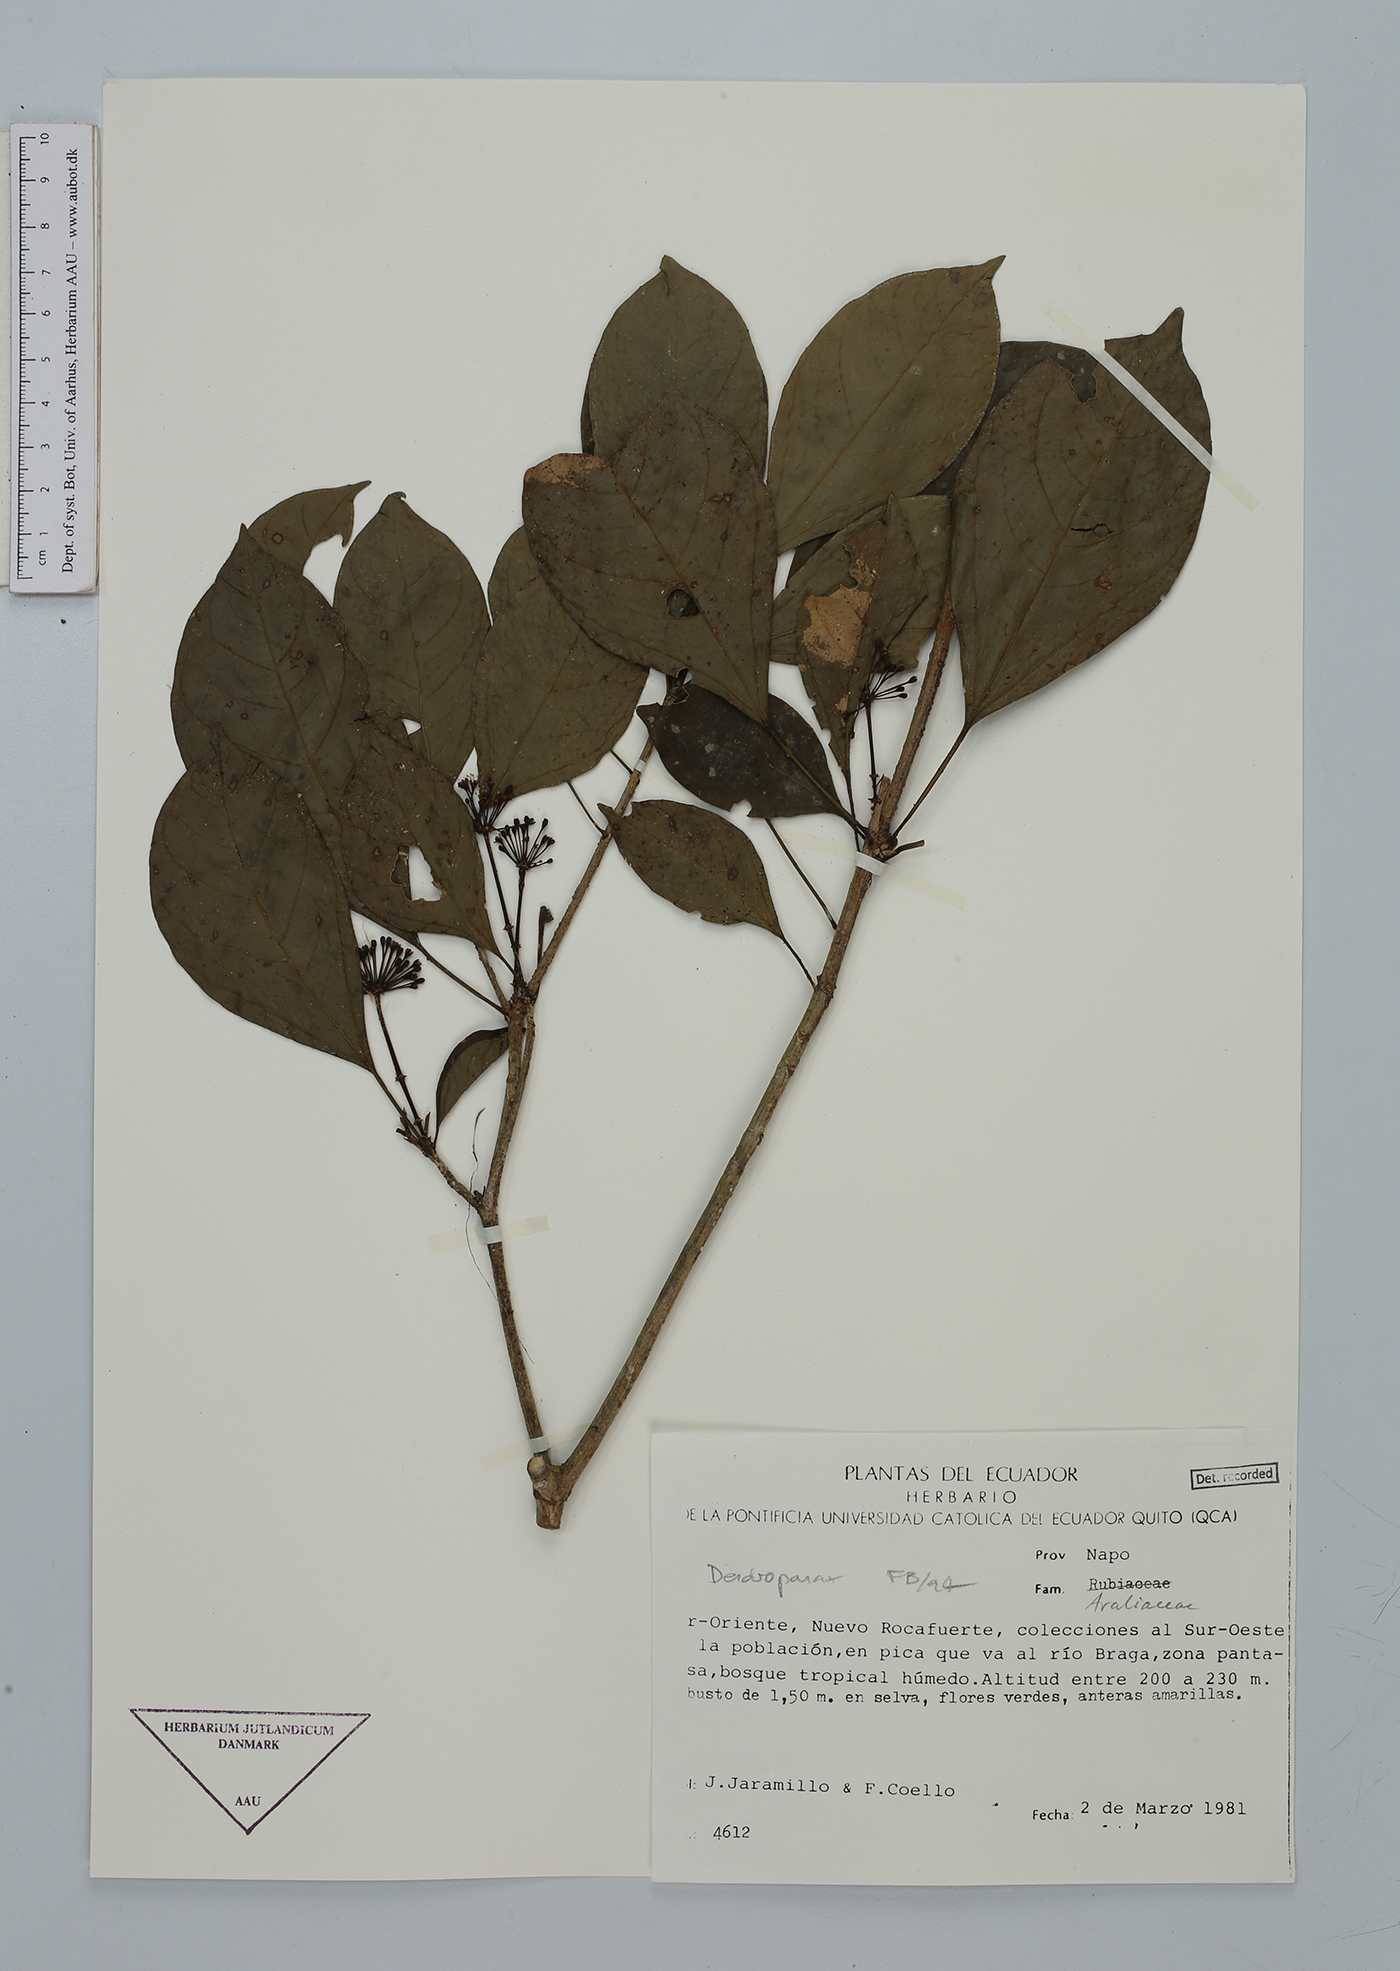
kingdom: Plantae
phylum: Tracheophyta
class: Magnoliopsida
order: Apiales
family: Araliaceae
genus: Dendropanax
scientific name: Dendropanax
